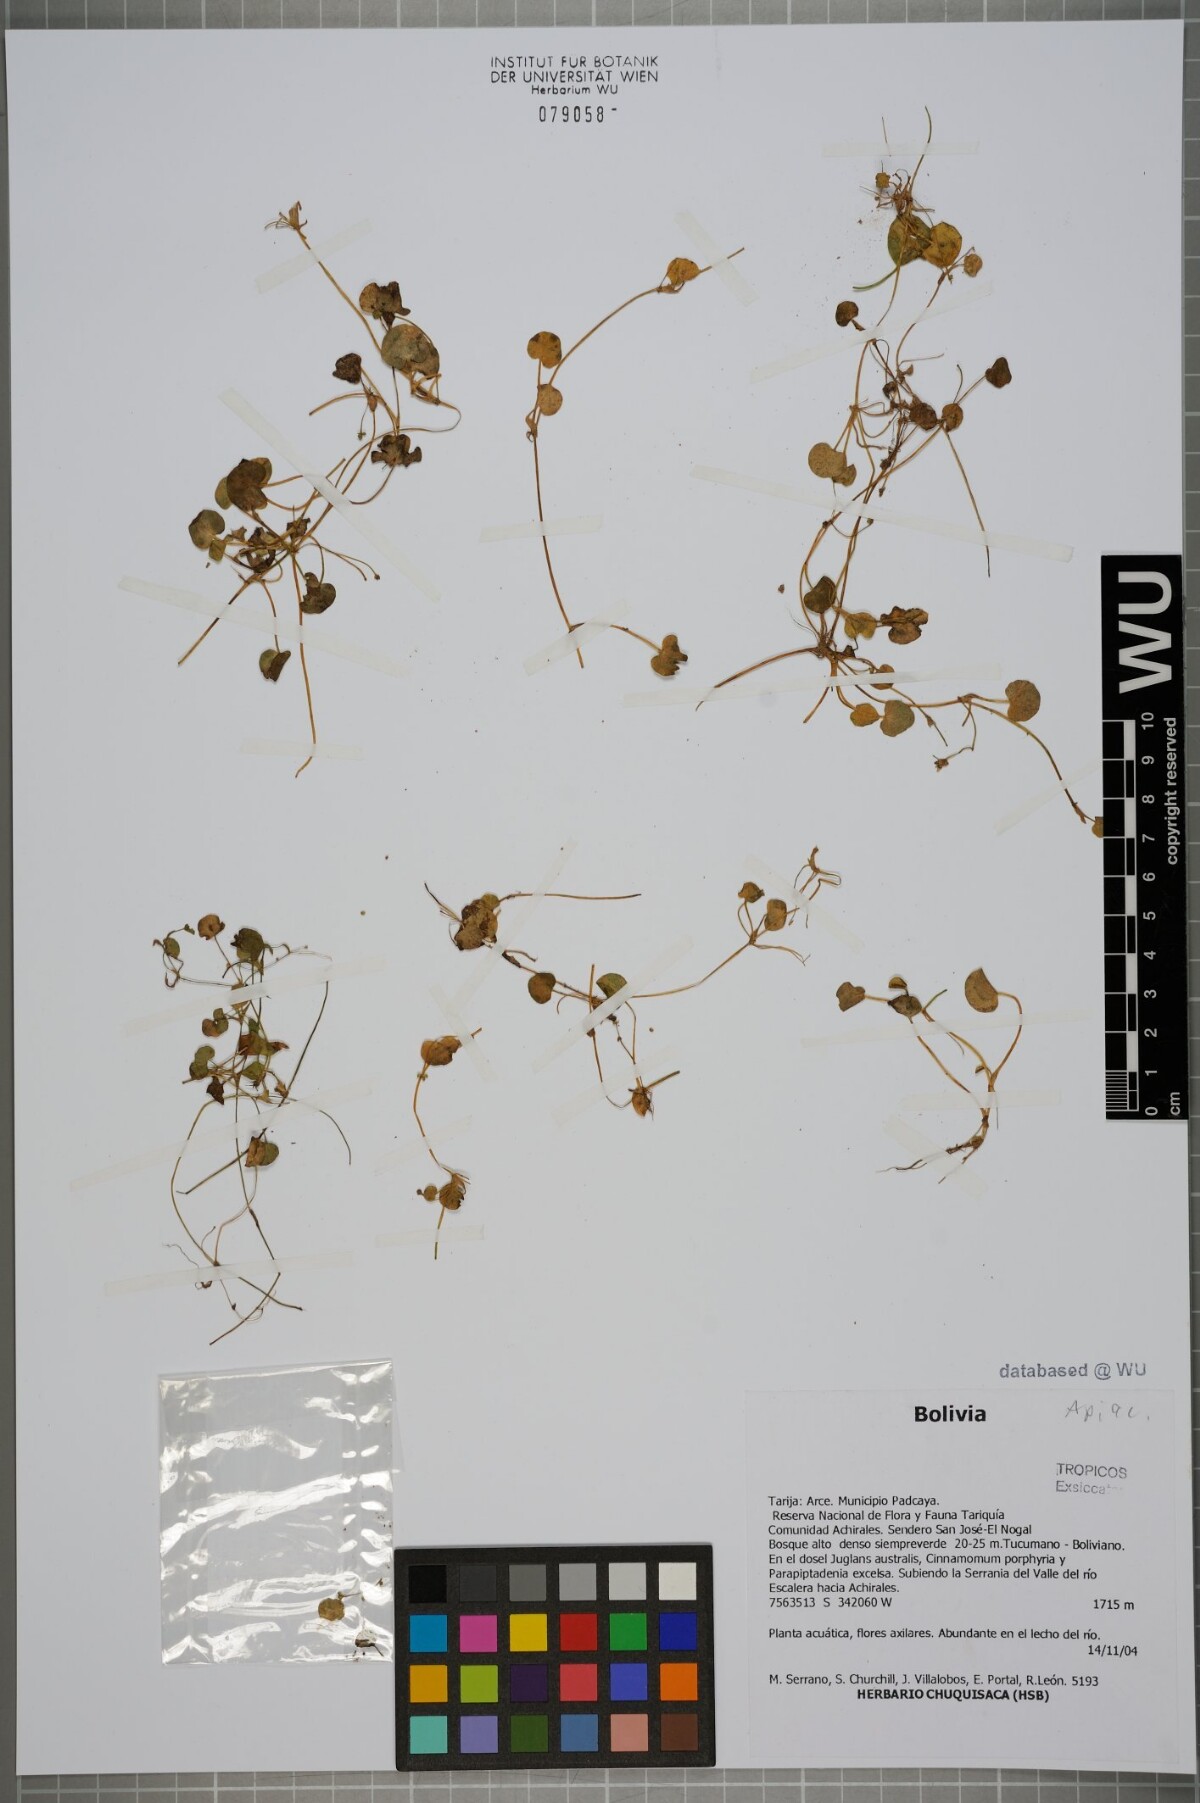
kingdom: Plantae
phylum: Tracheophyta
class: Magnoliopsida
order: Ranunculales
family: Ranunculaceae
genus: Ranunculus
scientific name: Ranunculus flagelliformis
